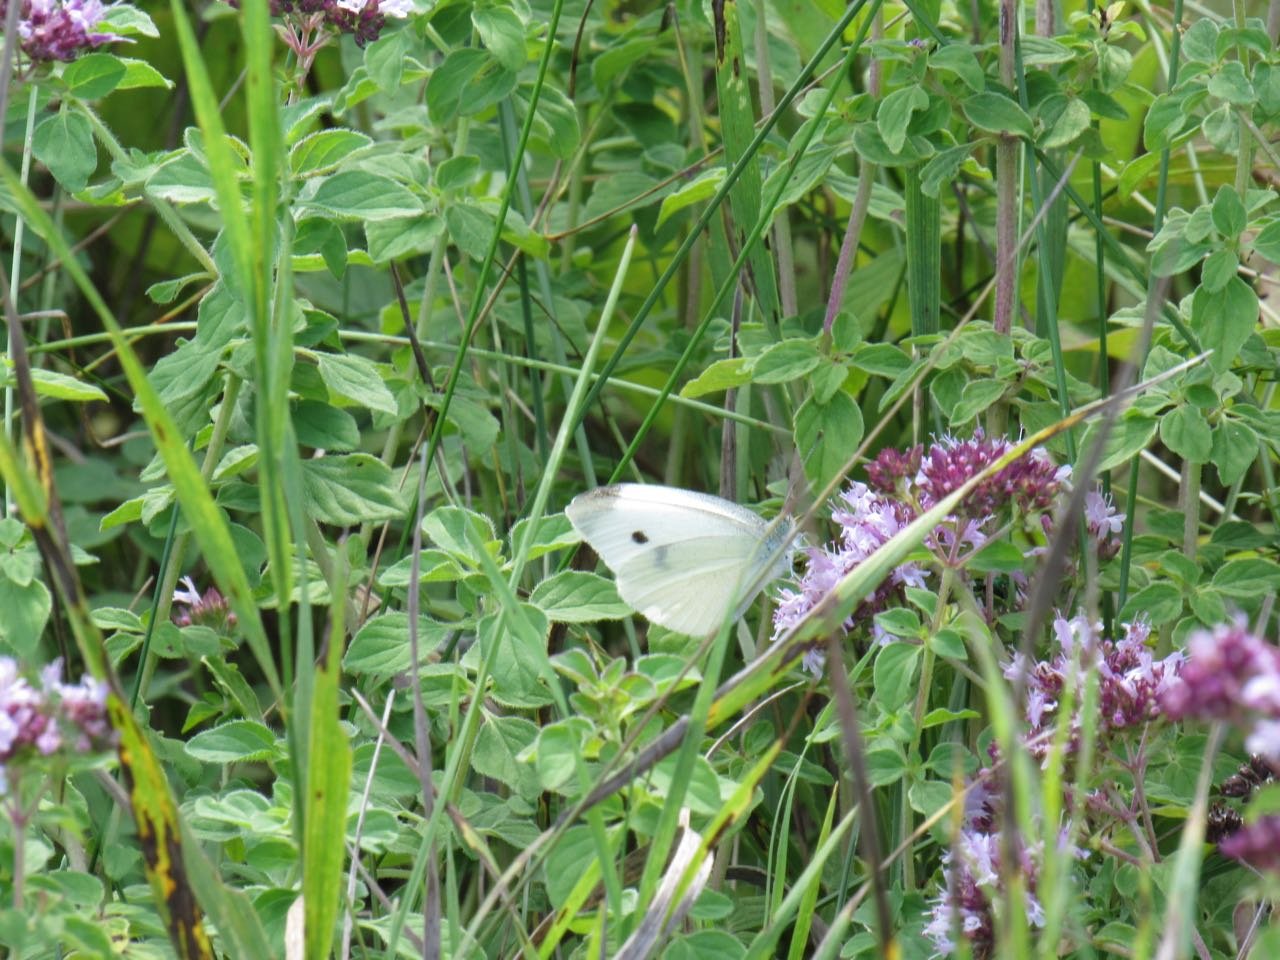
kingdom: Animalia
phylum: Arthropoda
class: Insecta
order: Lepidoptera
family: Pieridae
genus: Pieris
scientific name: Pieris rapae
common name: Cabbage White
